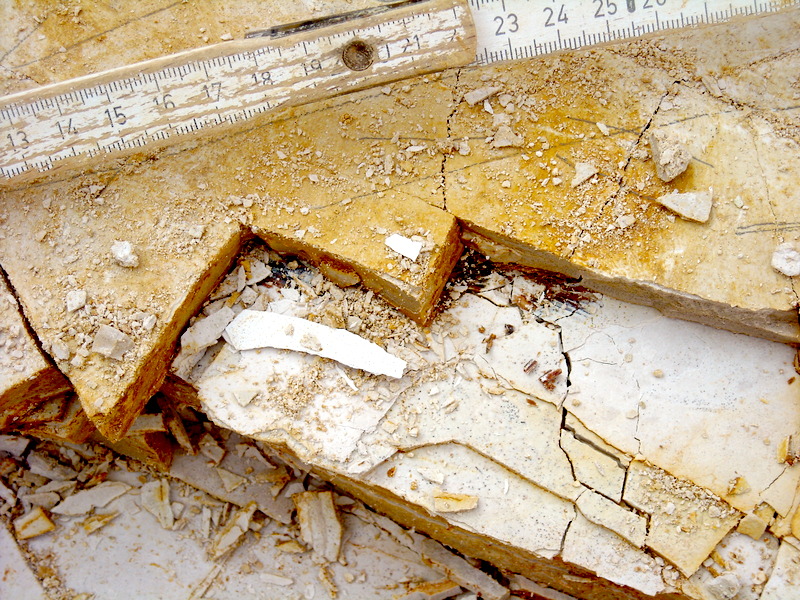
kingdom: Animalia
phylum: Chordata
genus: Thrissops
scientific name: Thrissops formosus
